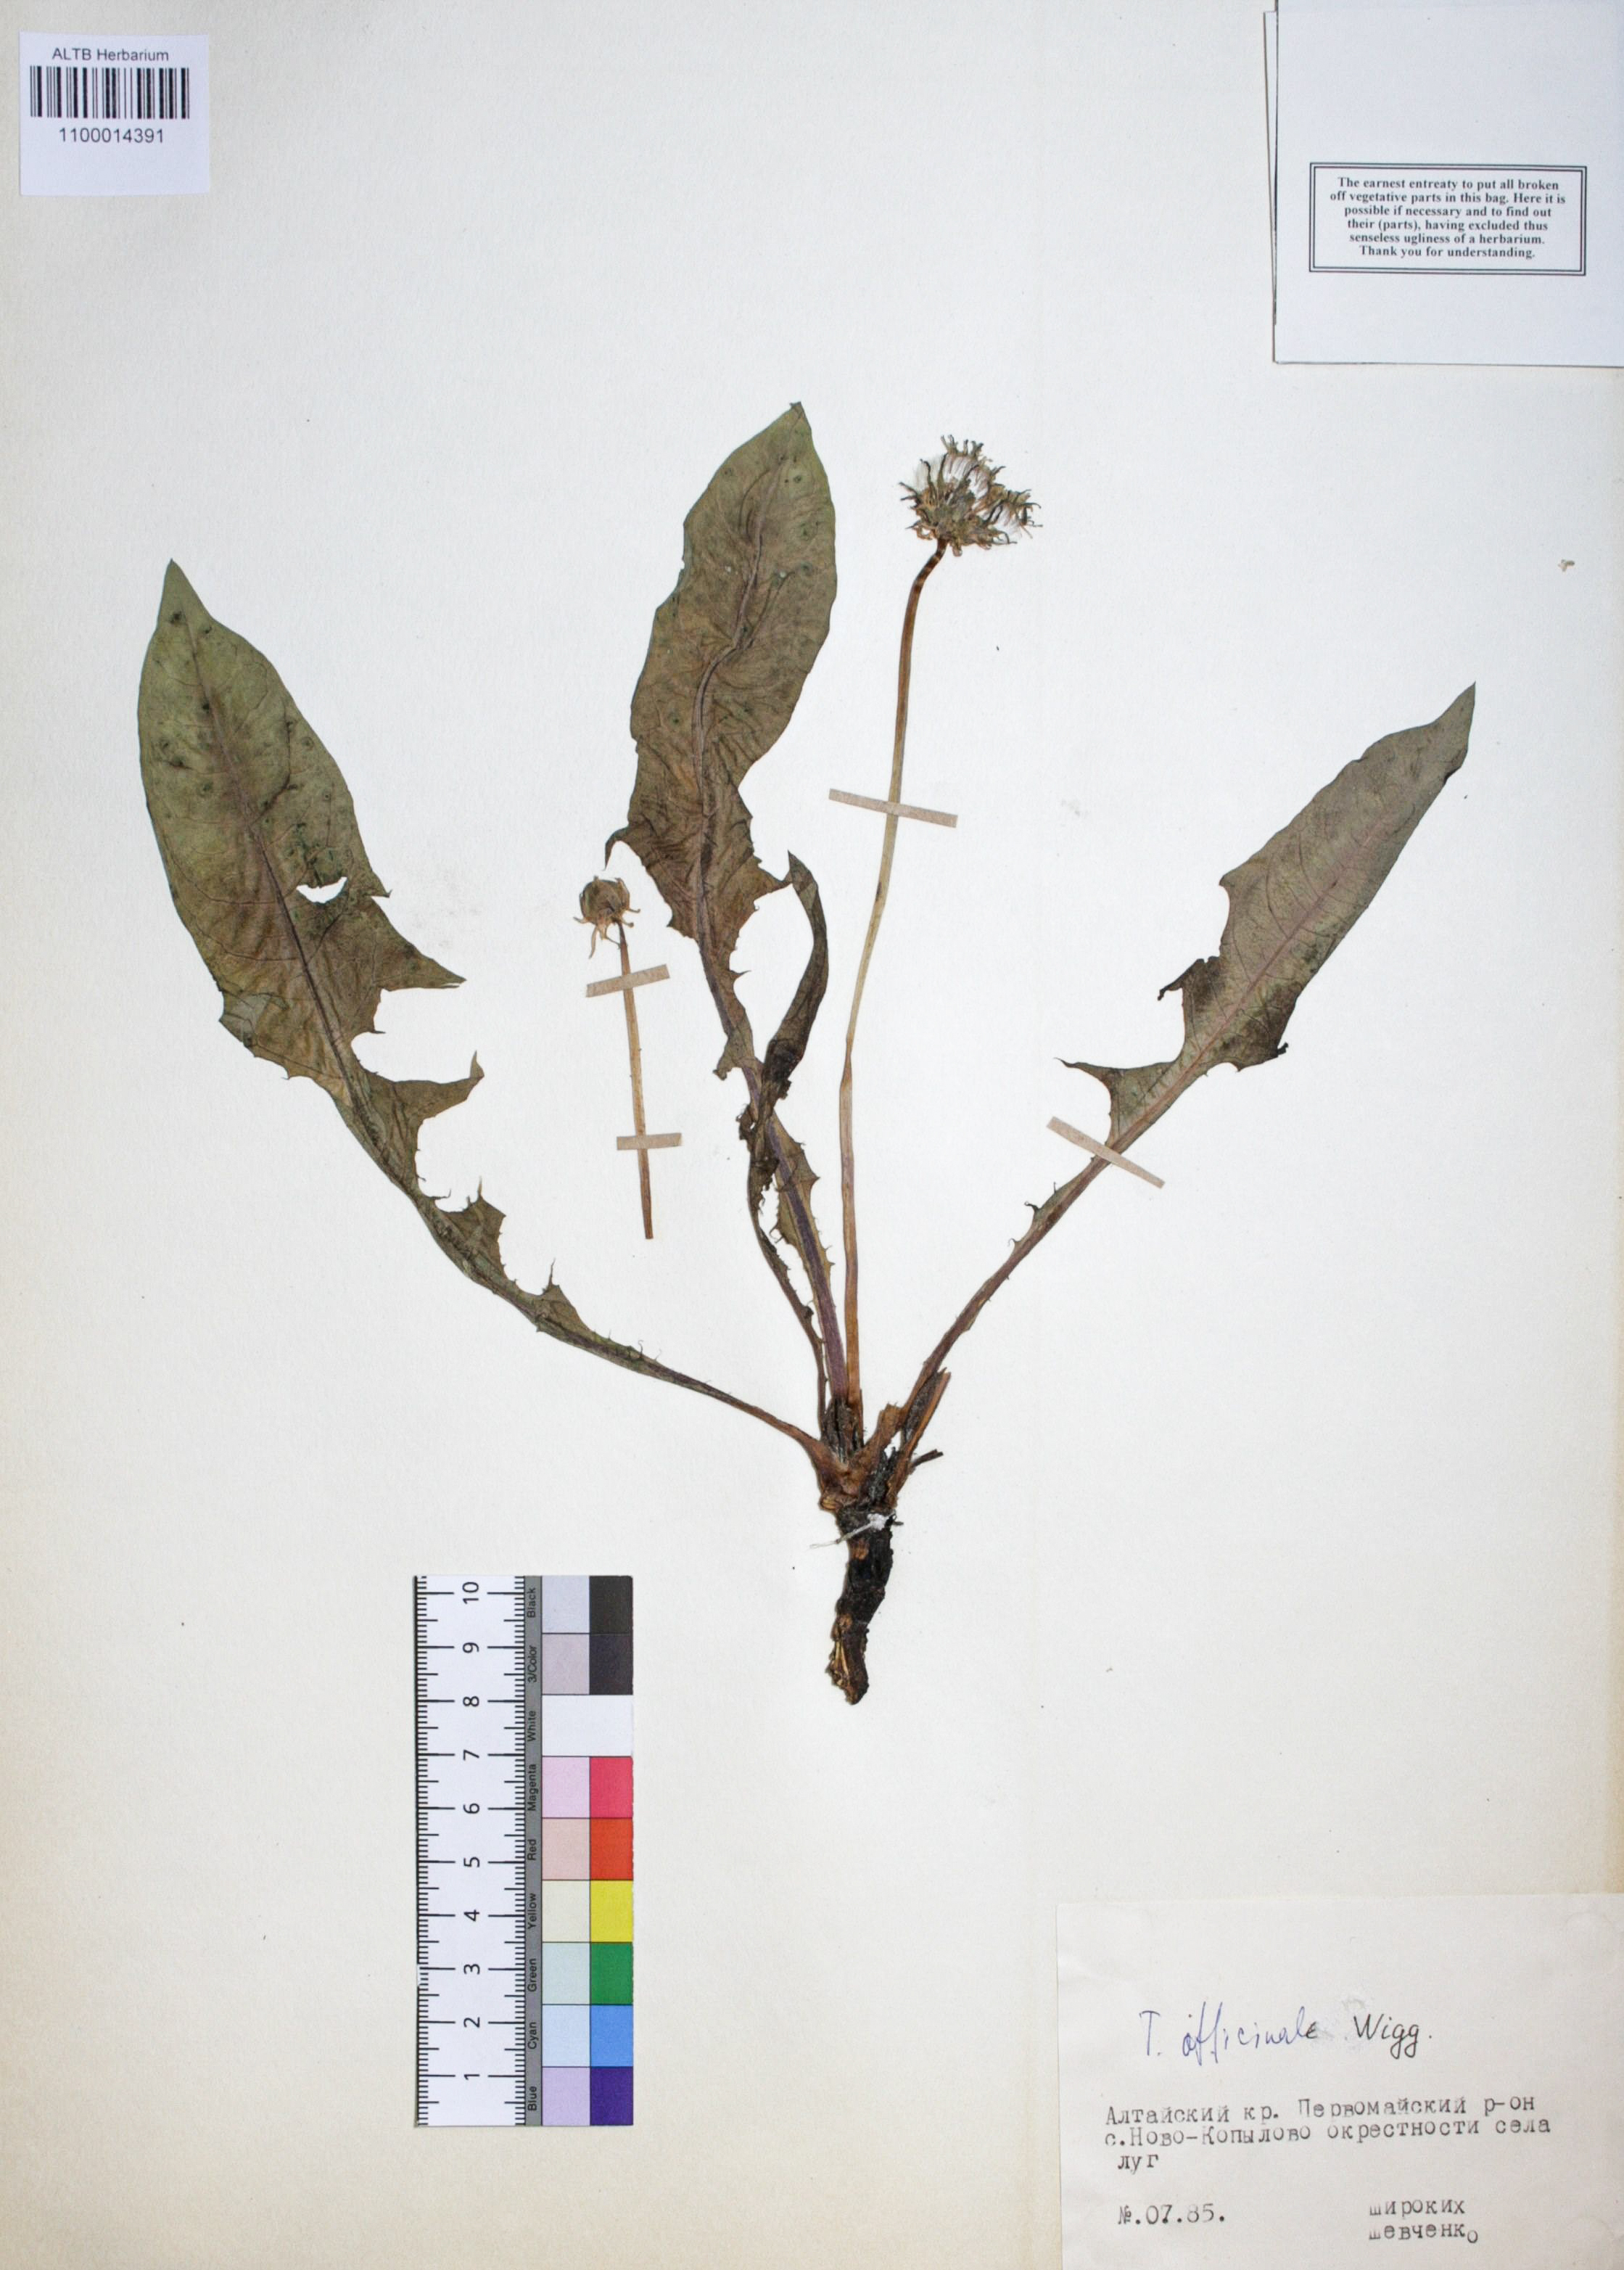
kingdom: Plantae
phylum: Tracheophyta
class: Magnoliopsida
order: Asterales
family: Asteraceae
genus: Taraxacum
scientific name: Taraxacum officinale
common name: Common dandelion
